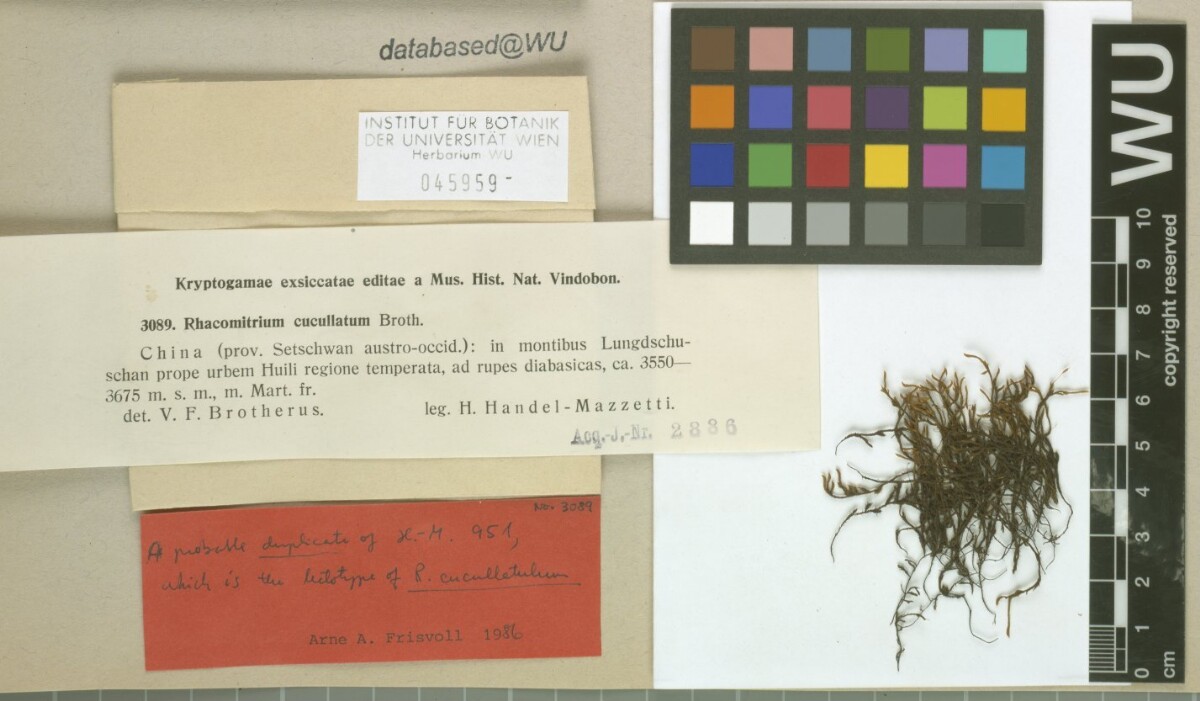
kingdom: Plantae
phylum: Bryophyta
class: Bryopsida
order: Grimmiales
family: Grimmiaceae
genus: Bucklandiella
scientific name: Bucklandiella cucullatula
